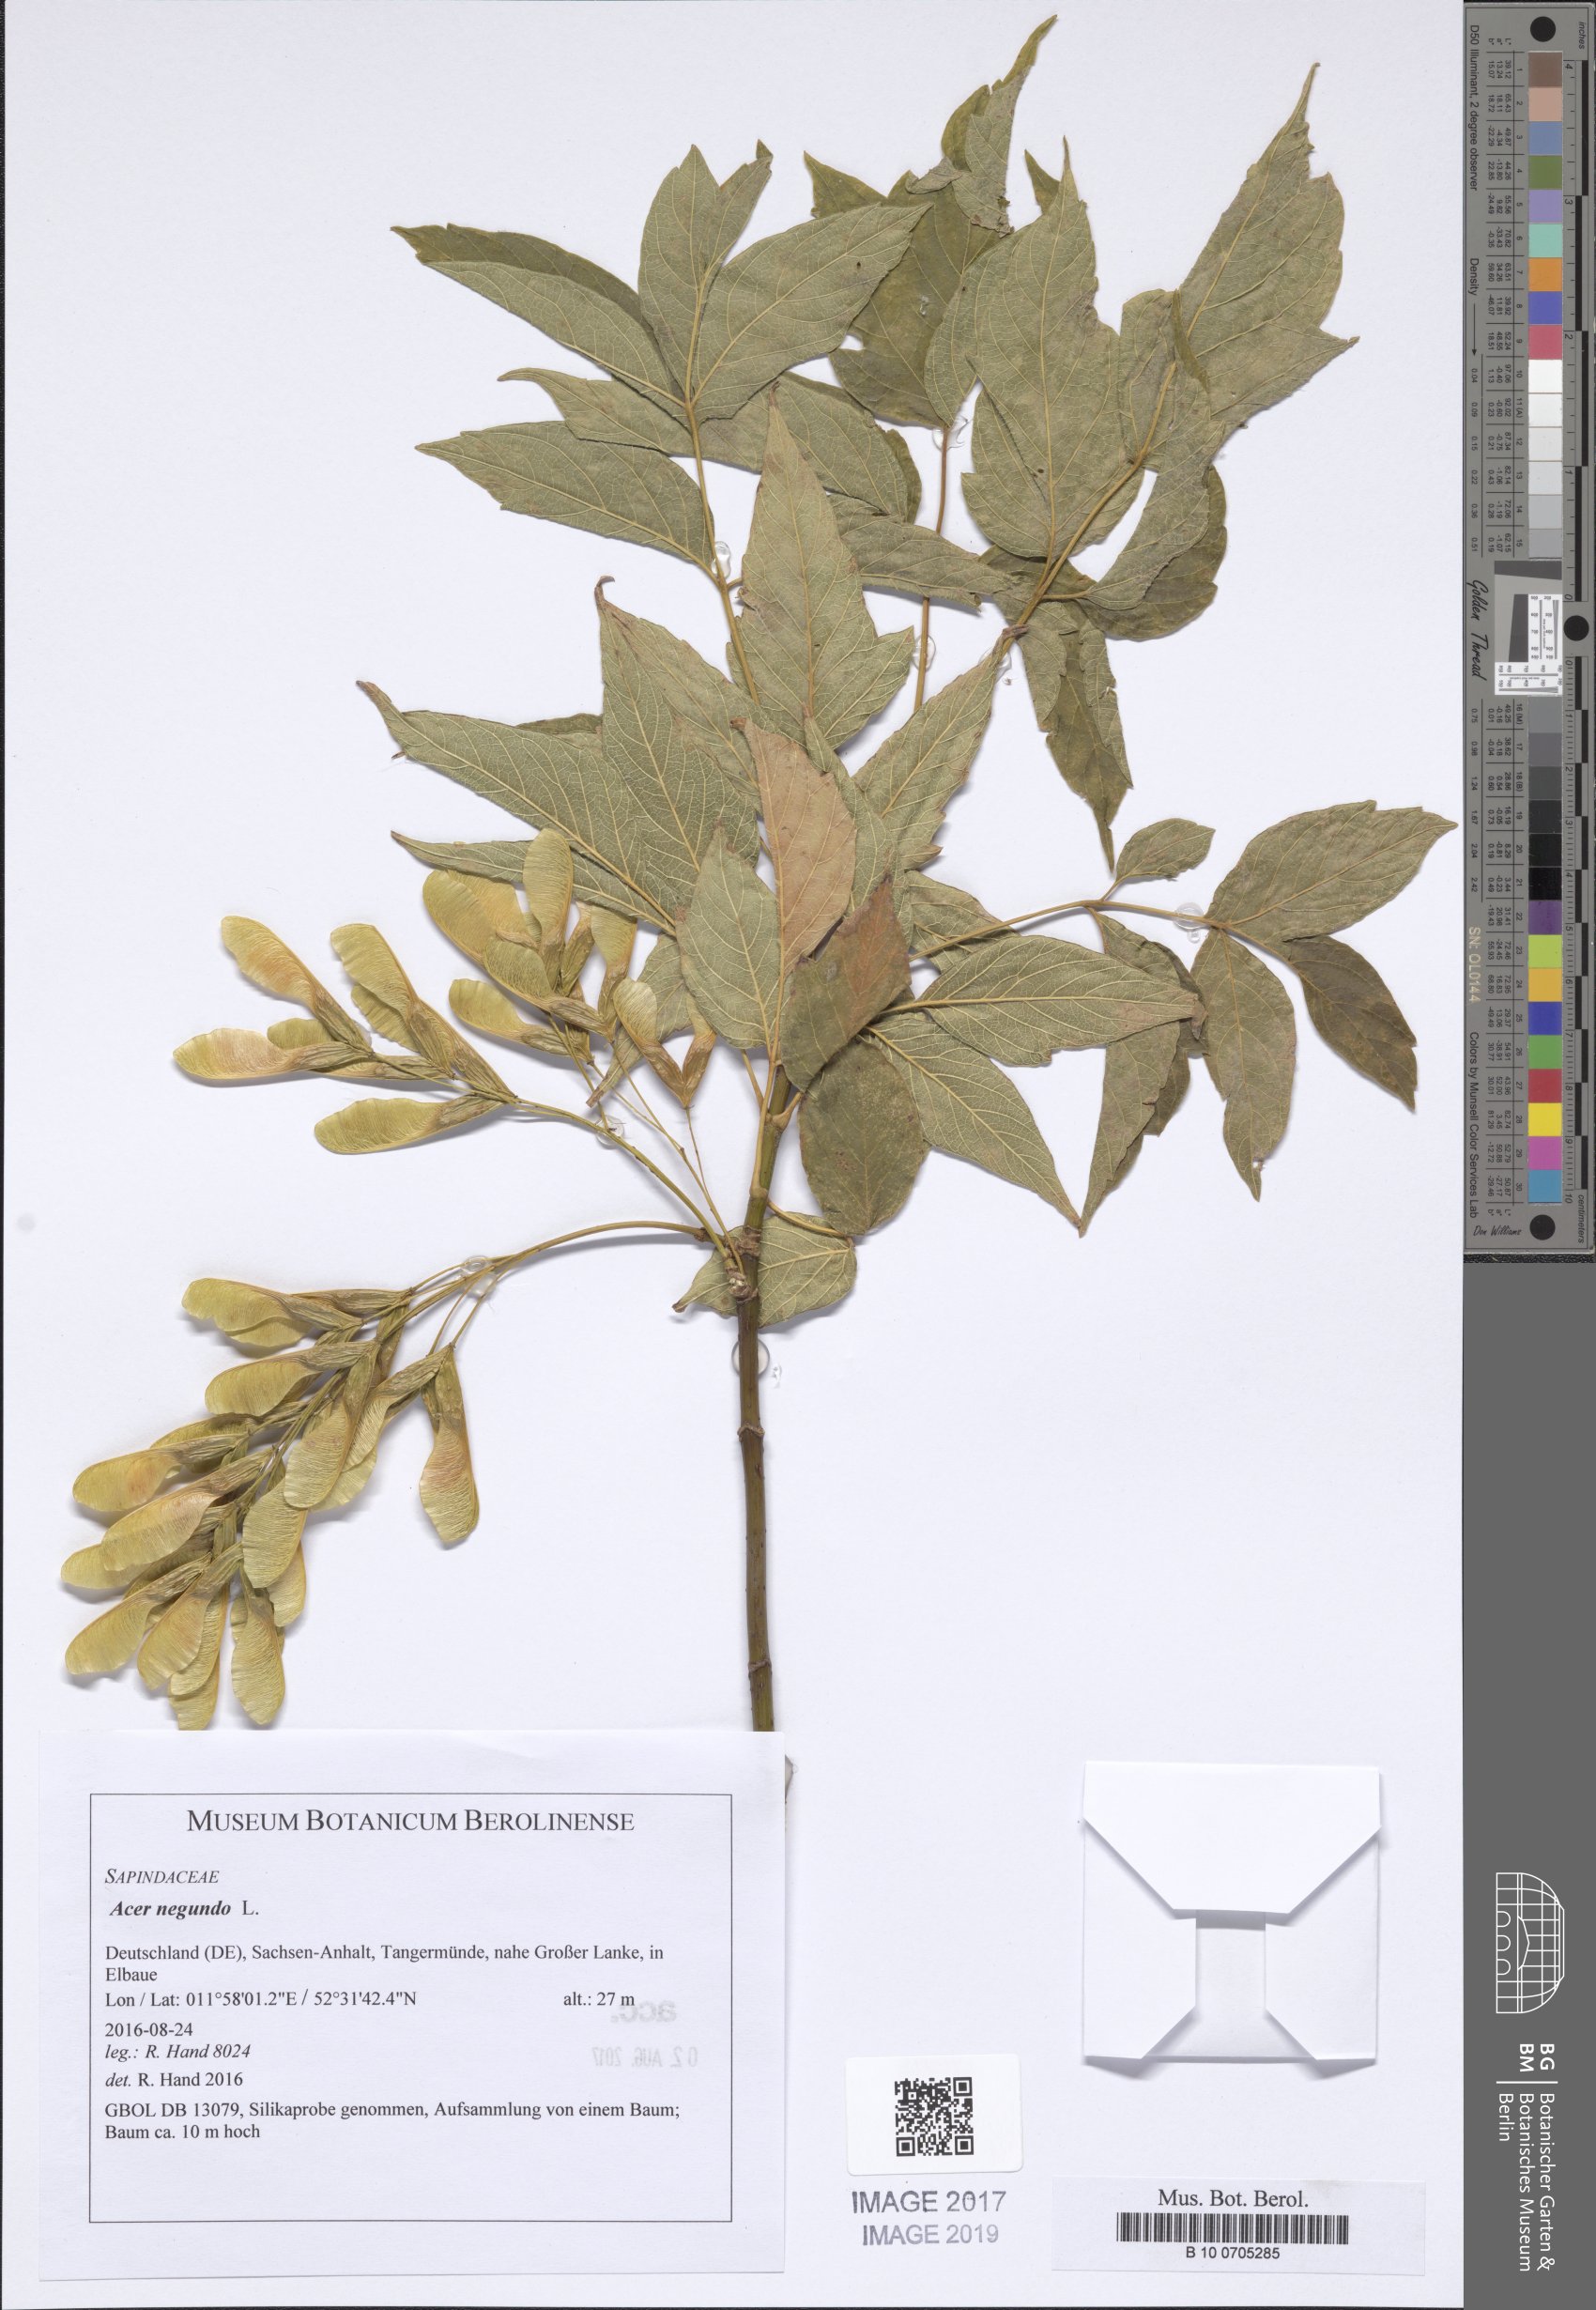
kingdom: Plantae
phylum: Tracheophyta
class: Magnoliopsida
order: Sapindales
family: Sapindaceae
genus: Acer
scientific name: Acer negundo
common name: Ashleaf maple
